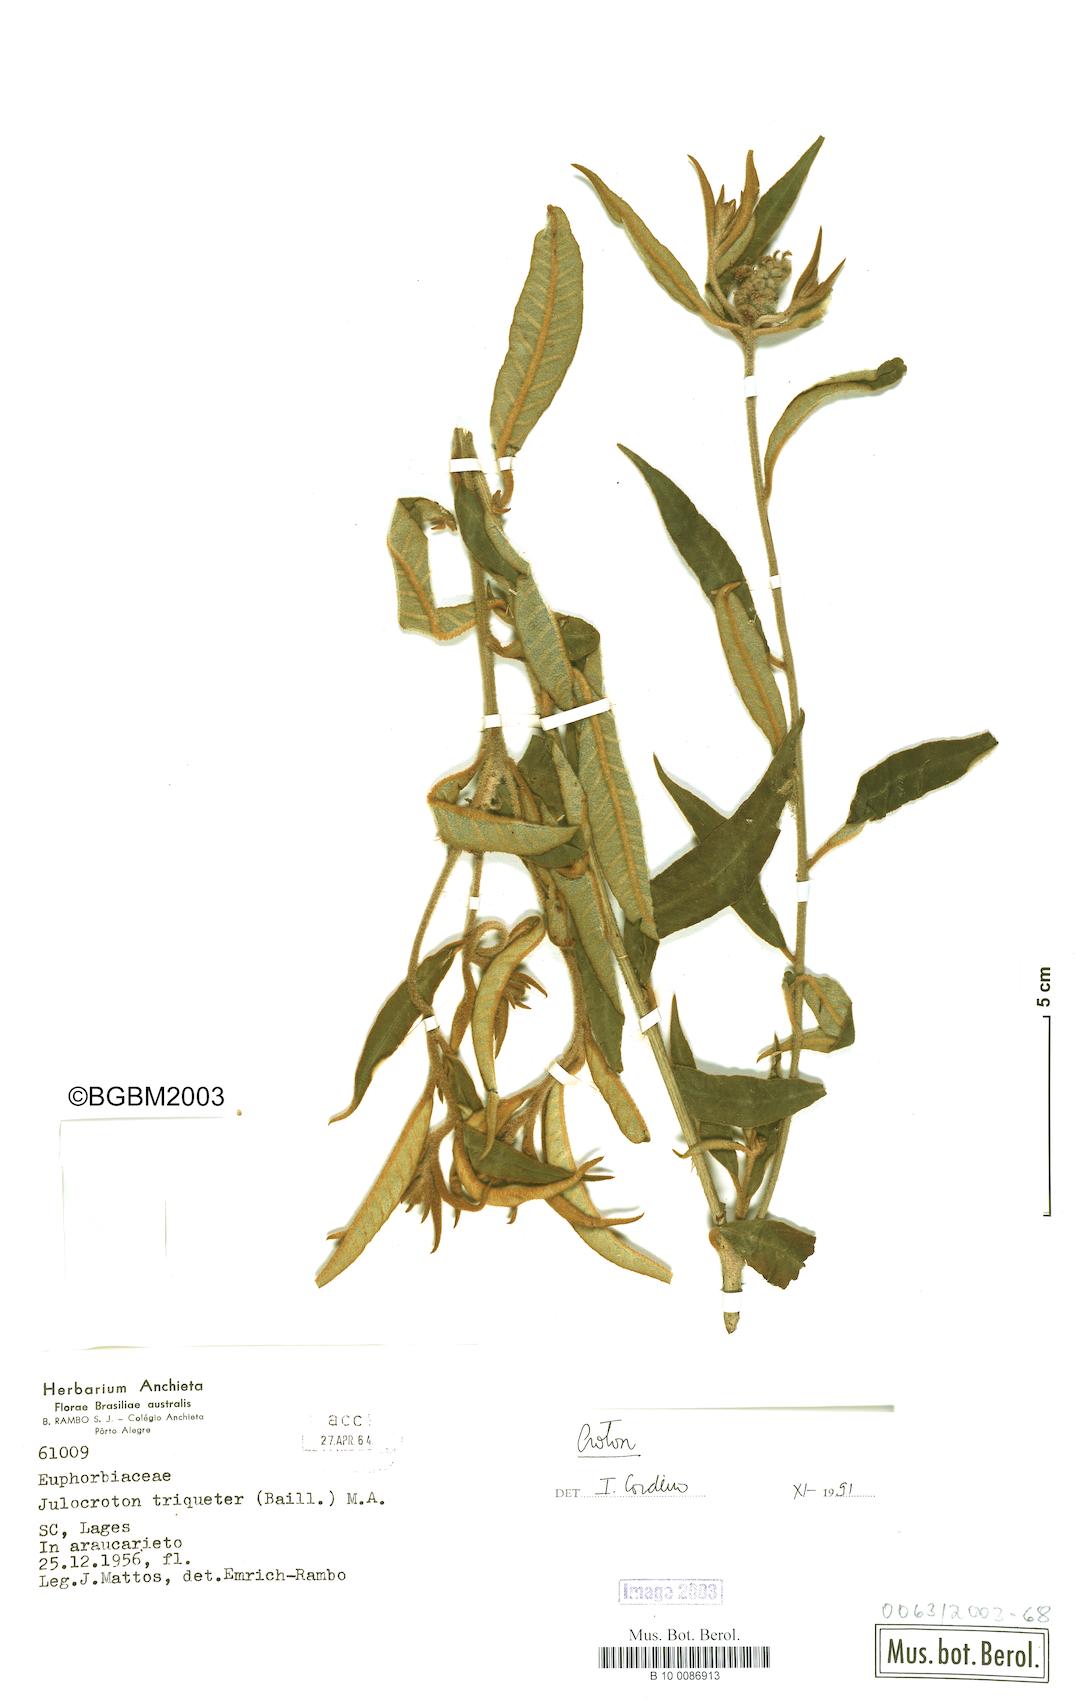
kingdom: Plantae
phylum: Tracheophyta
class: Magnoliopsida
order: Malpighiales
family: Euphorbiaceae
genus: Croton
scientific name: Croton
